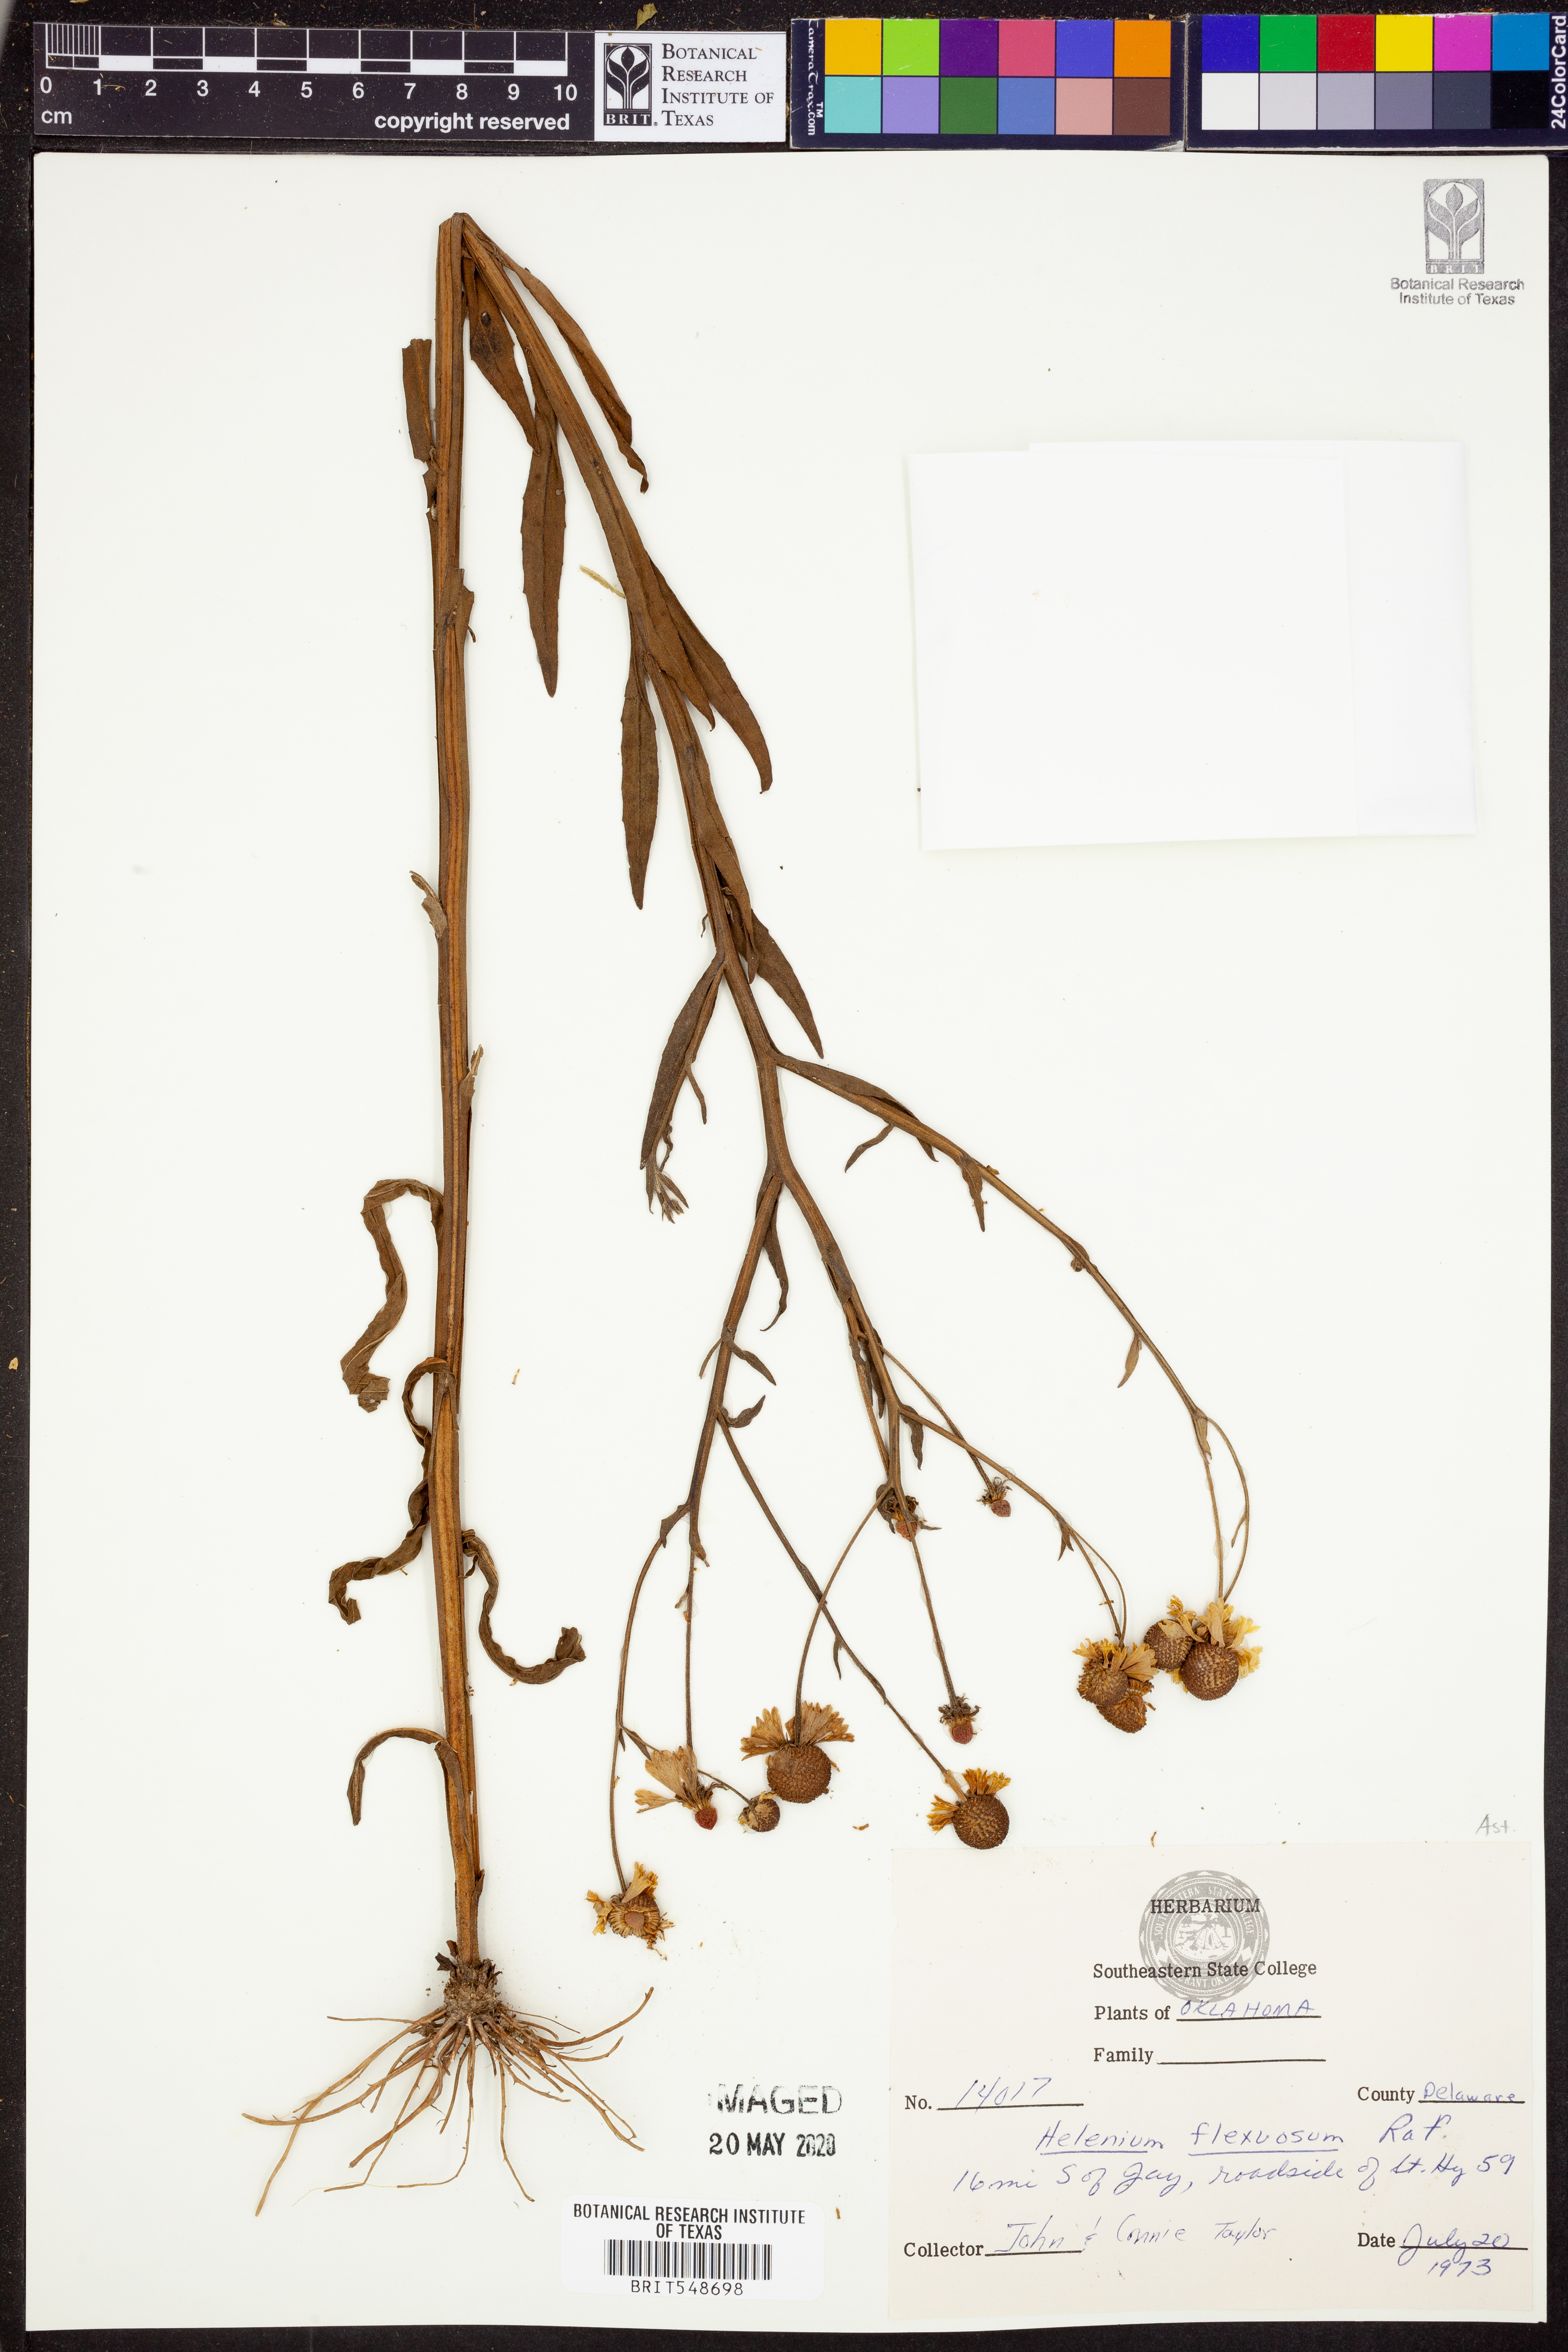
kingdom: Plantae
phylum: Tracheophyta
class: Magnoliopsida
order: Asterales
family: Asteraceae
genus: Helenium
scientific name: Helenium flexuosum
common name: Naked-flowered sneezeweed
